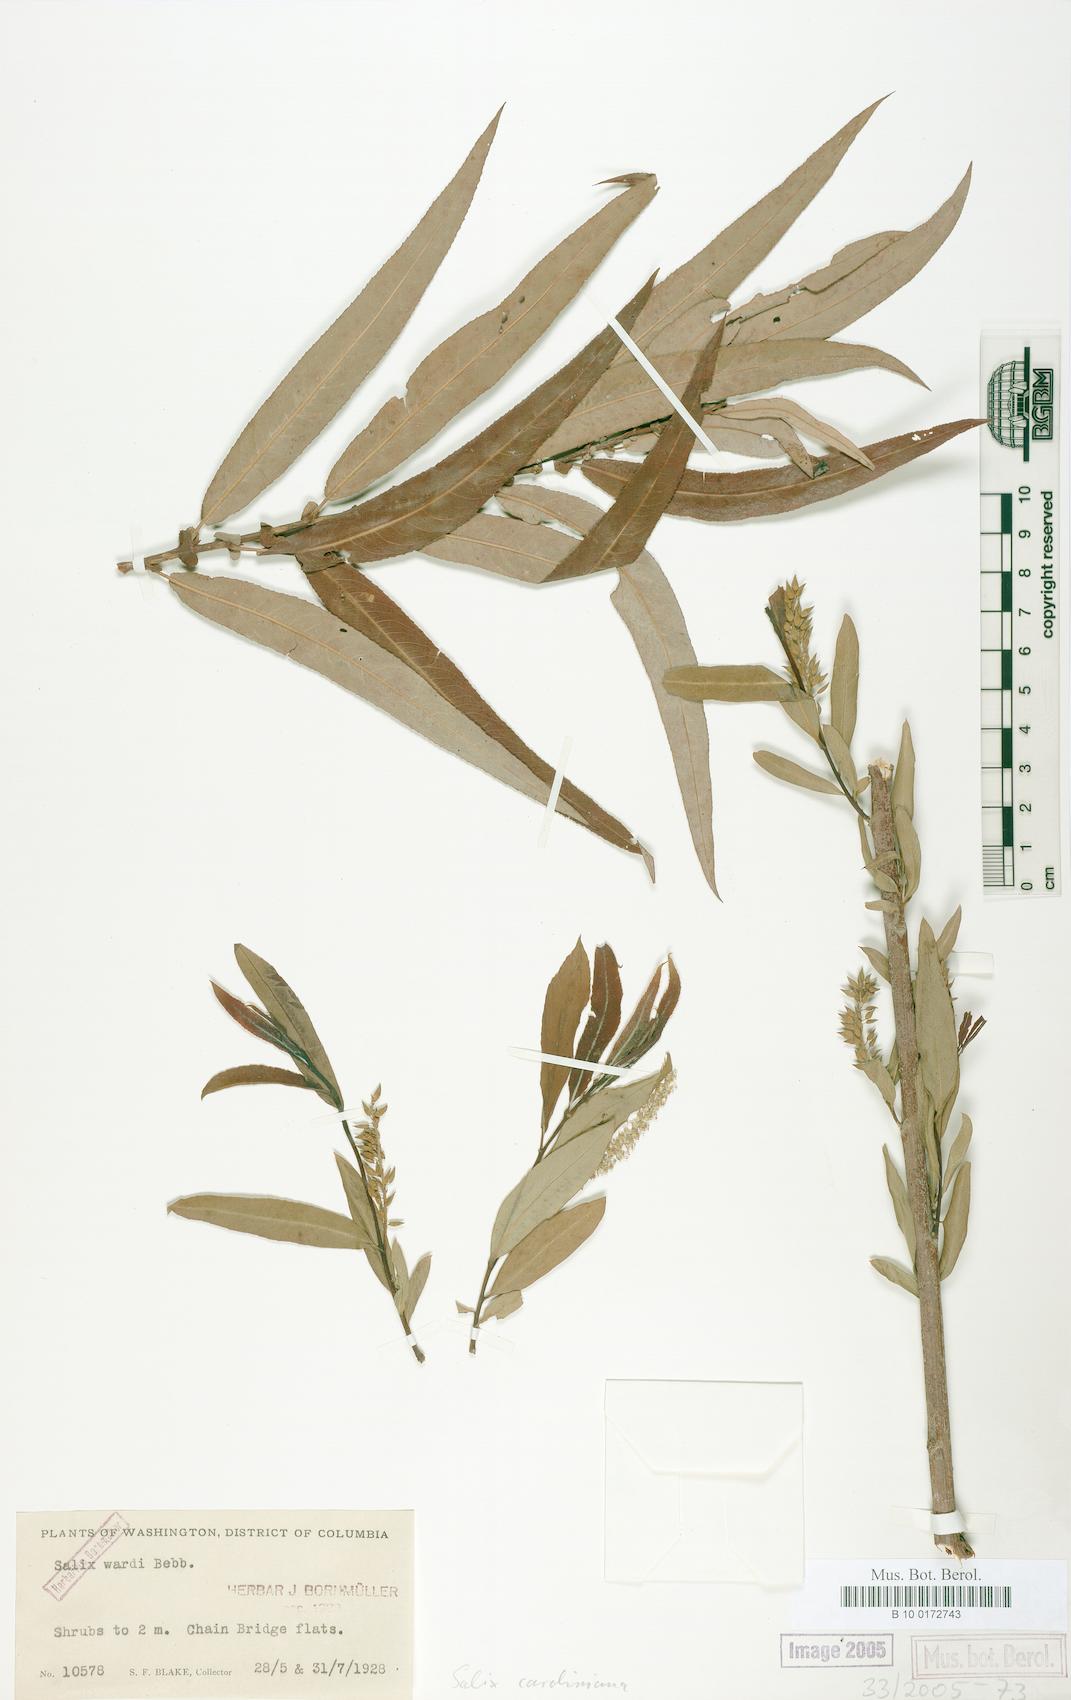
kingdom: Plantae
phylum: Tracheophyta
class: Magnoliopsida
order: Malpighiales
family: Salicaceae
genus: Salix
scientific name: Salix caroliniana
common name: Carolina willow
